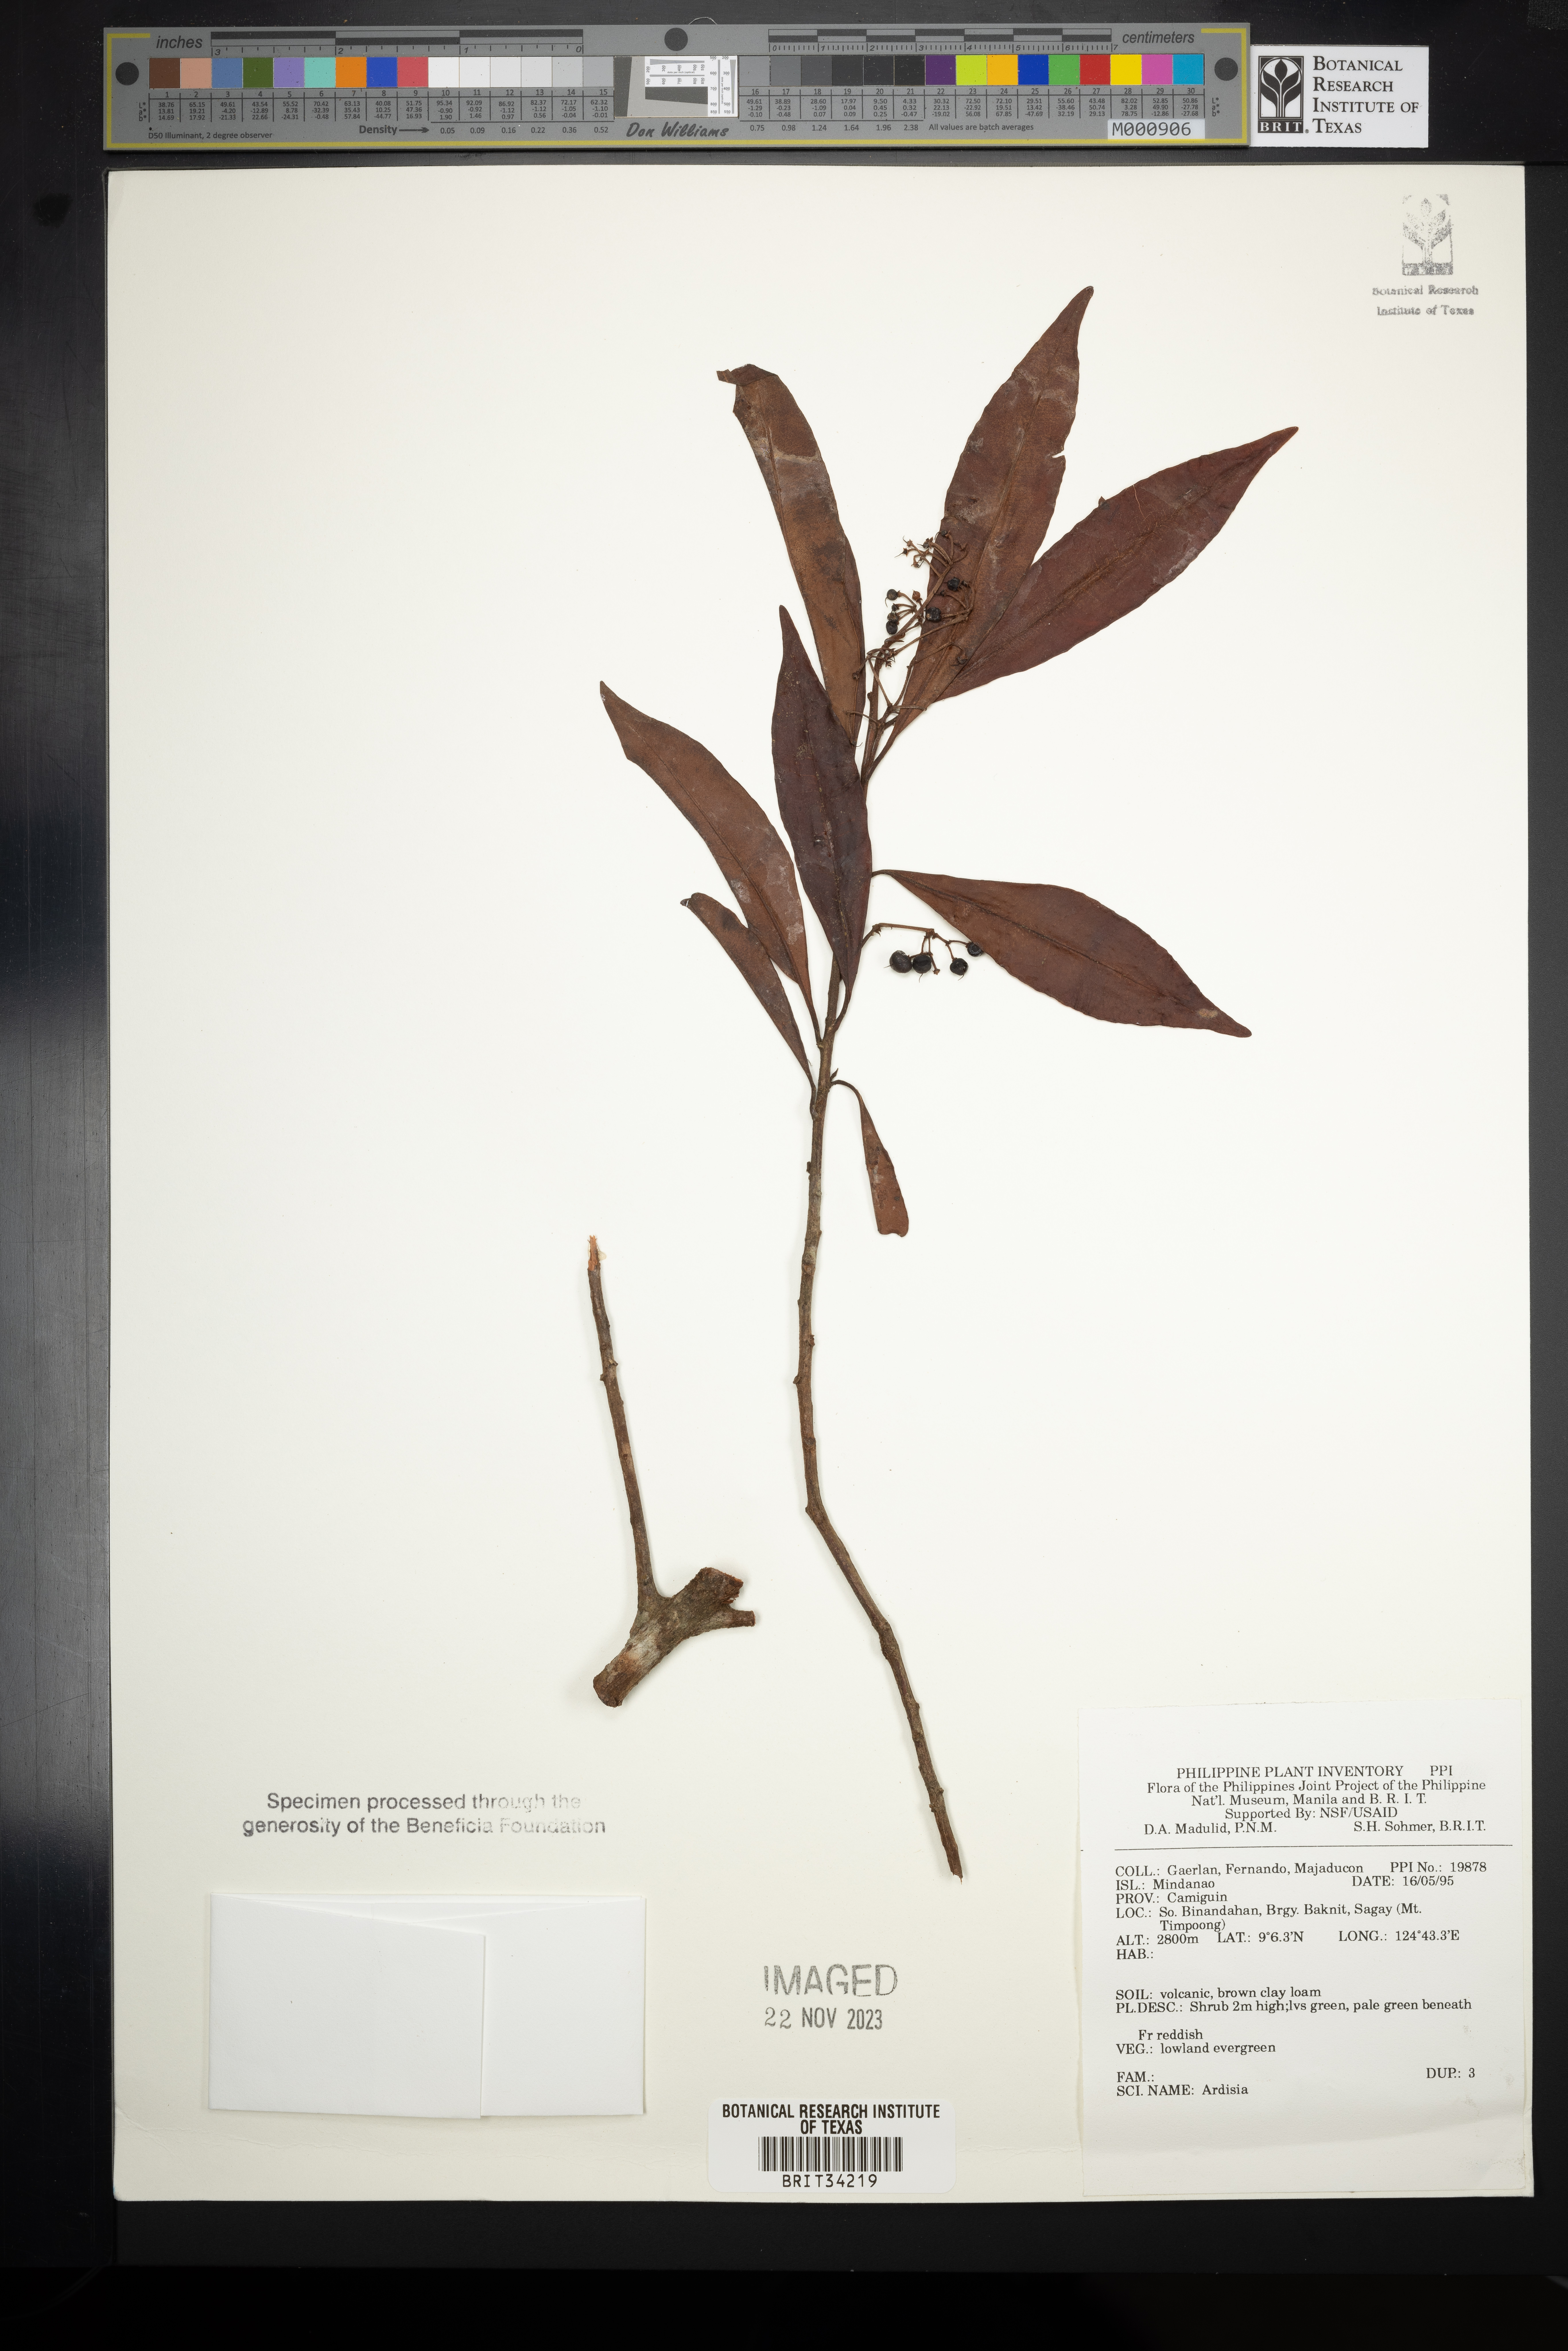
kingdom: Plantae
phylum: Tracheophyta
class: Magnoliopsida
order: Ericales
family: Primulaceae
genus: Ardisia
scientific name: Ardisia
